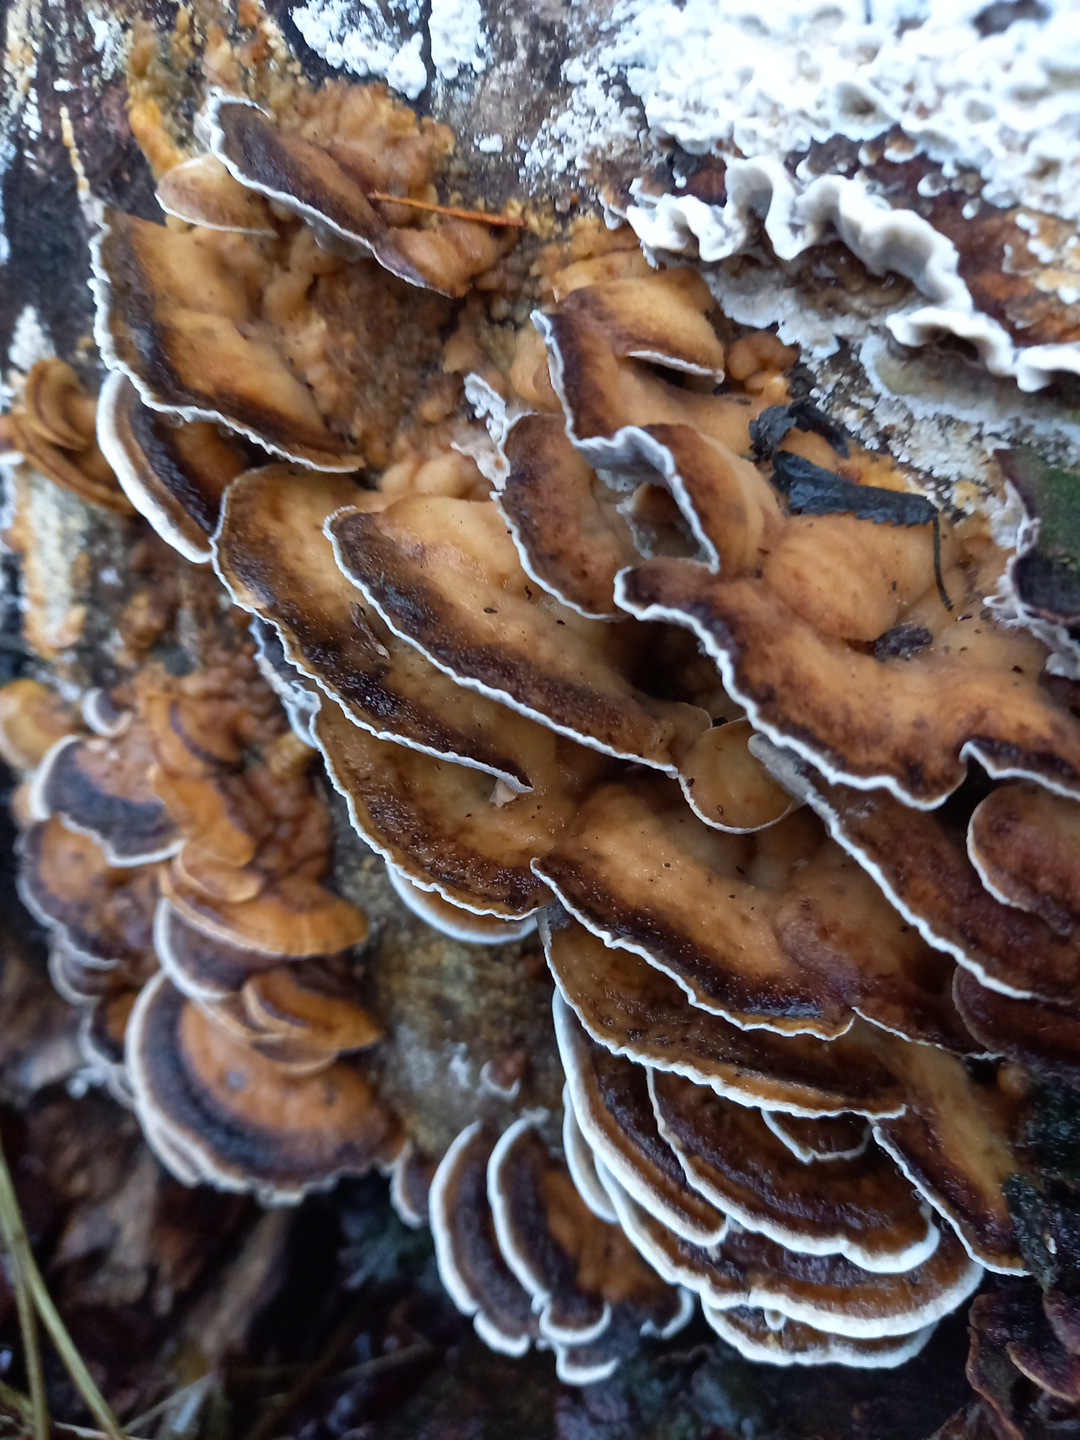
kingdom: Fungi
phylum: Basidiomycota
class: Agaricomycetes
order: Polyporales
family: Phanerochaetaceae
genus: Bjerkandera
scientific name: Bjerkandera adusta
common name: sveden sodporesvamp
